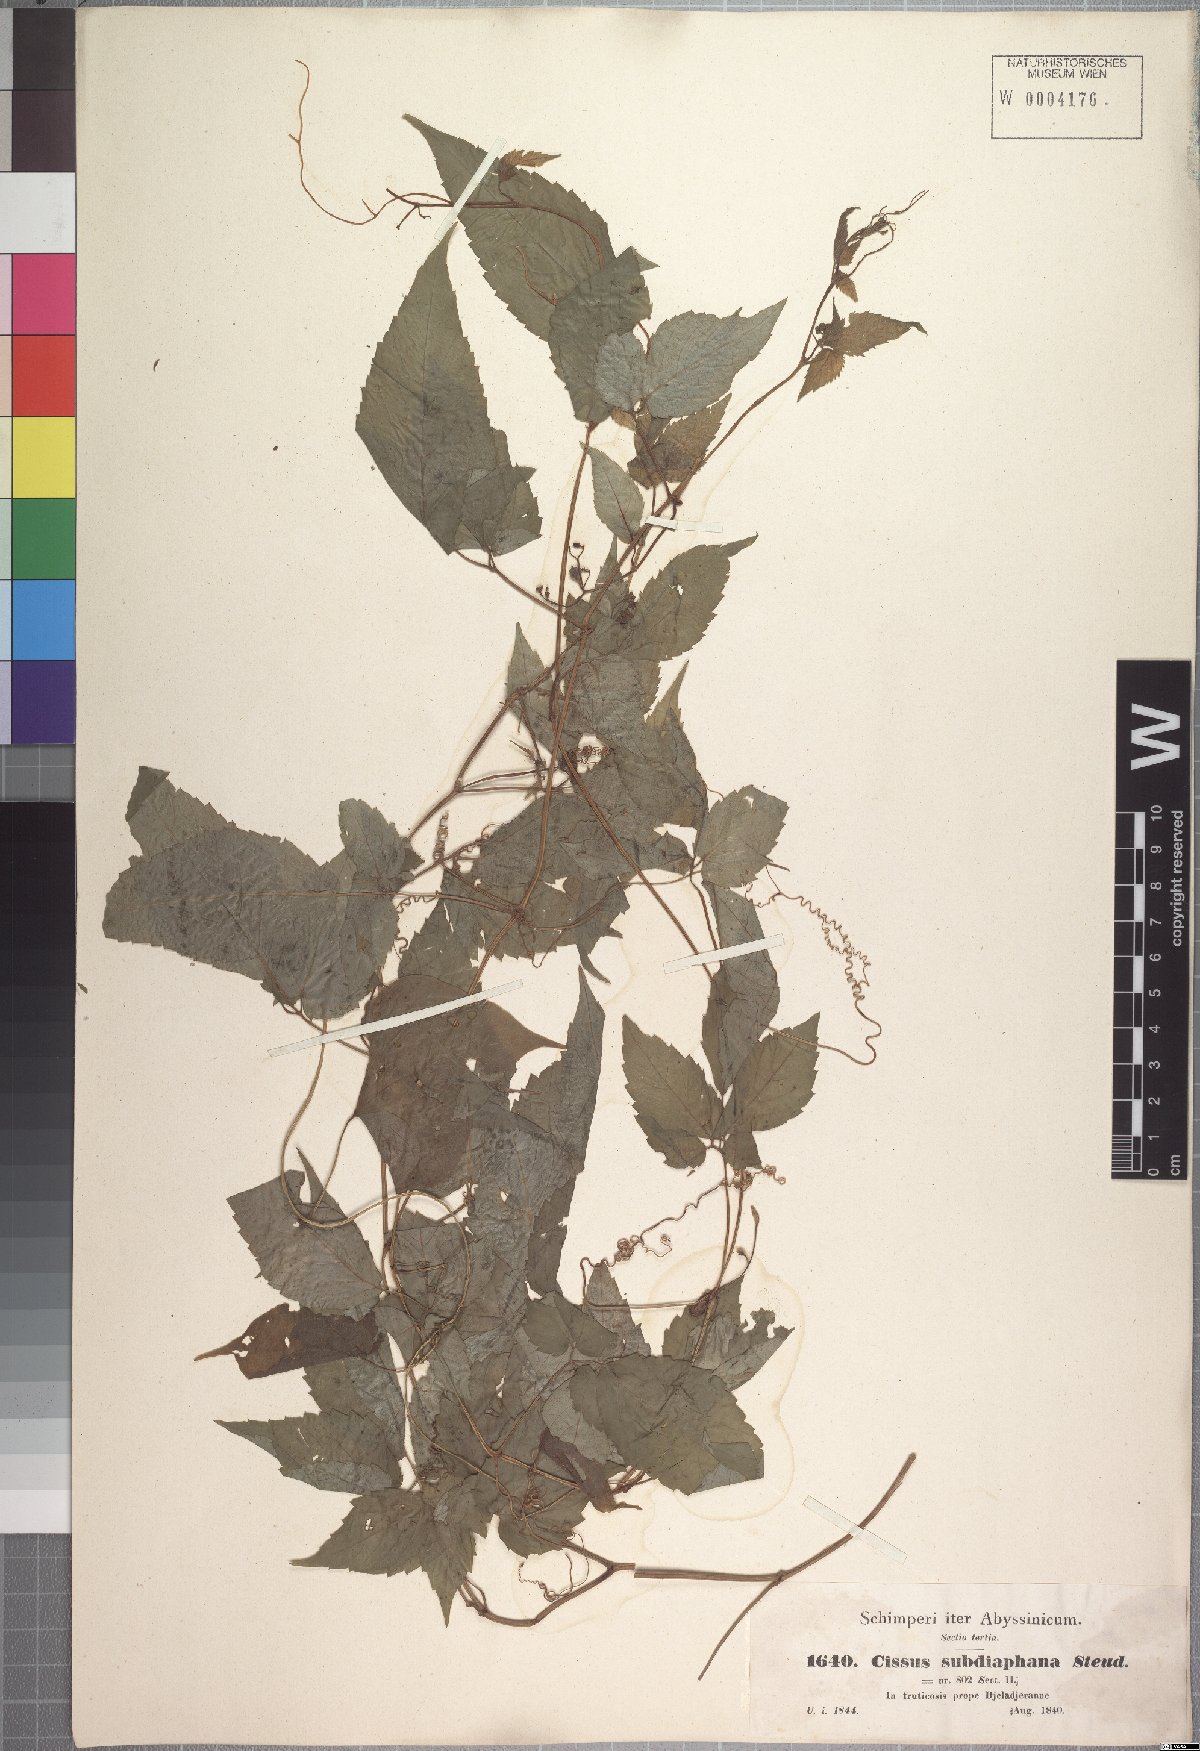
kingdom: Plantae
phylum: Tracheophyta
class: Magnoliopsida
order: Vitales
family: Vitaceae
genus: Afrocayratia
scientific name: Afrocayratia gracilis
